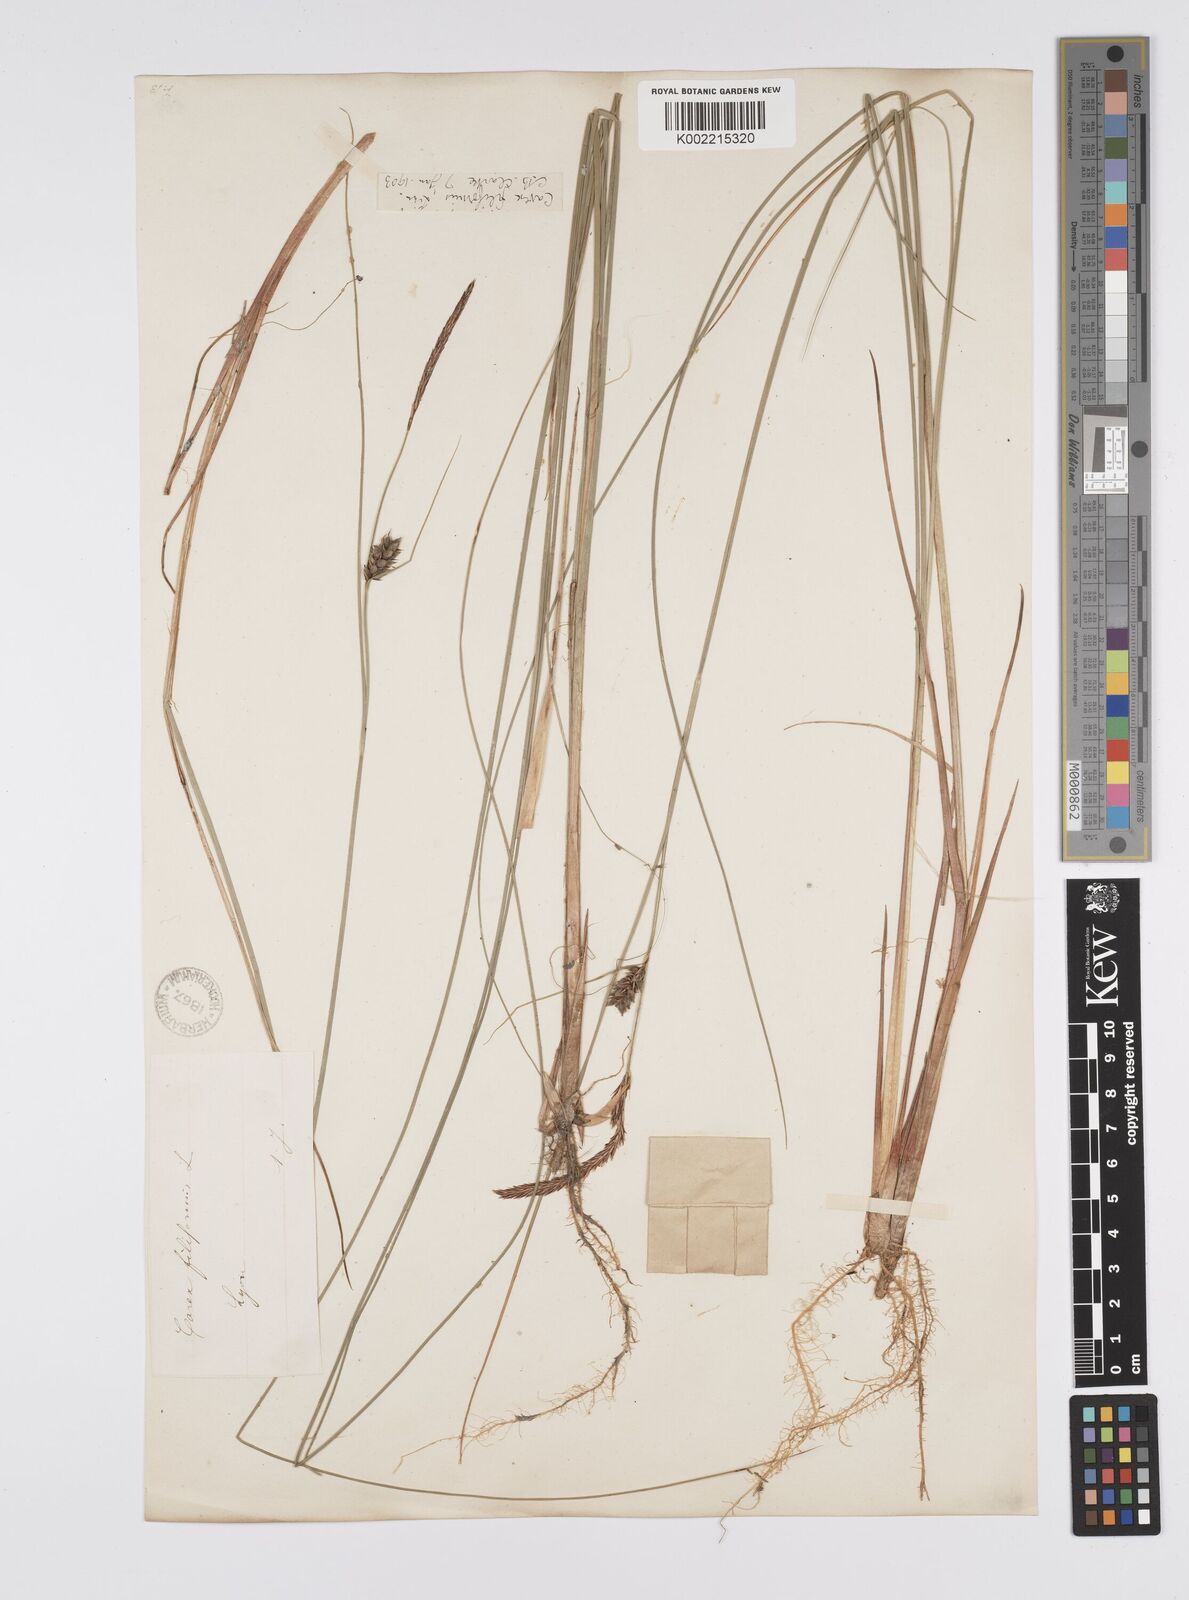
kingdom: Plantae
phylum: Tracheophyta
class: Liliopsida
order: Poales
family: Cyperaceae
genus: Carex
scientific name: Carex lasiocarpa
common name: Slender sedge
